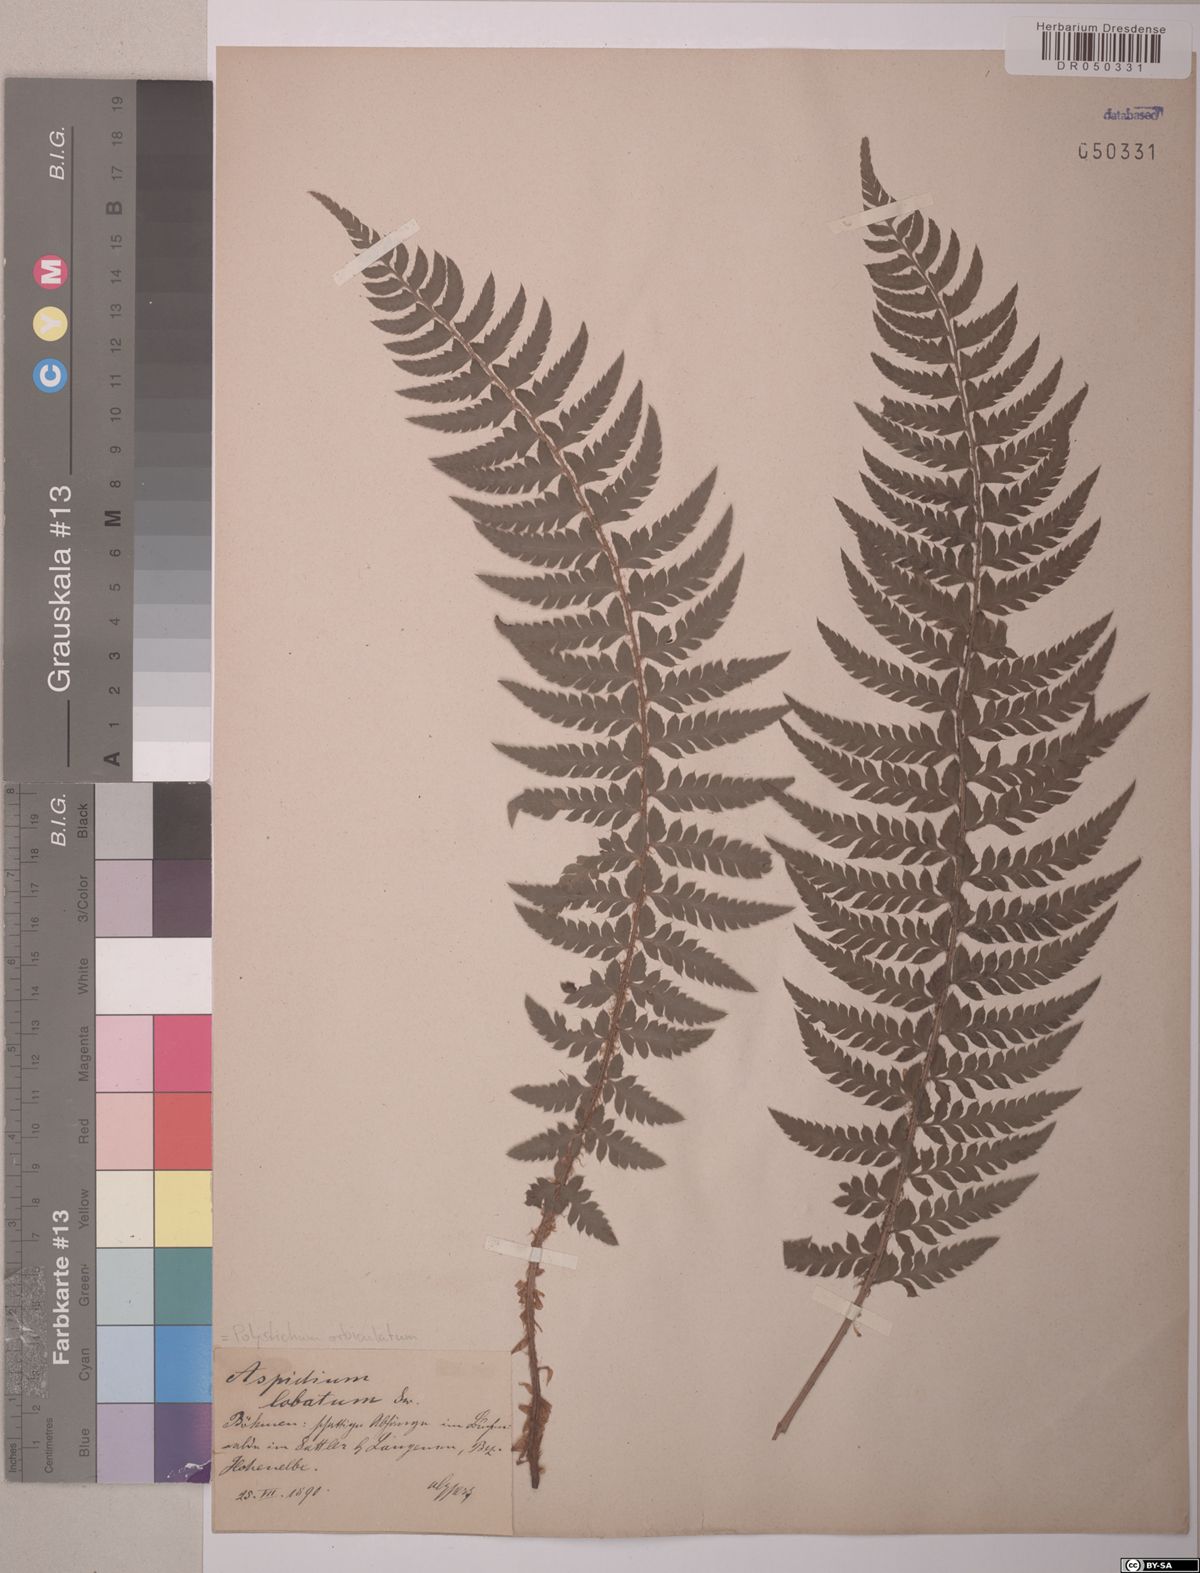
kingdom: Plantae
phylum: Tracheophyta
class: Polypodiopsida
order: Polypodiales
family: Dryopteridaceae
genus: Polystichum
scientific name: Polystichum aculeatum
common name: Hard shield-fern
